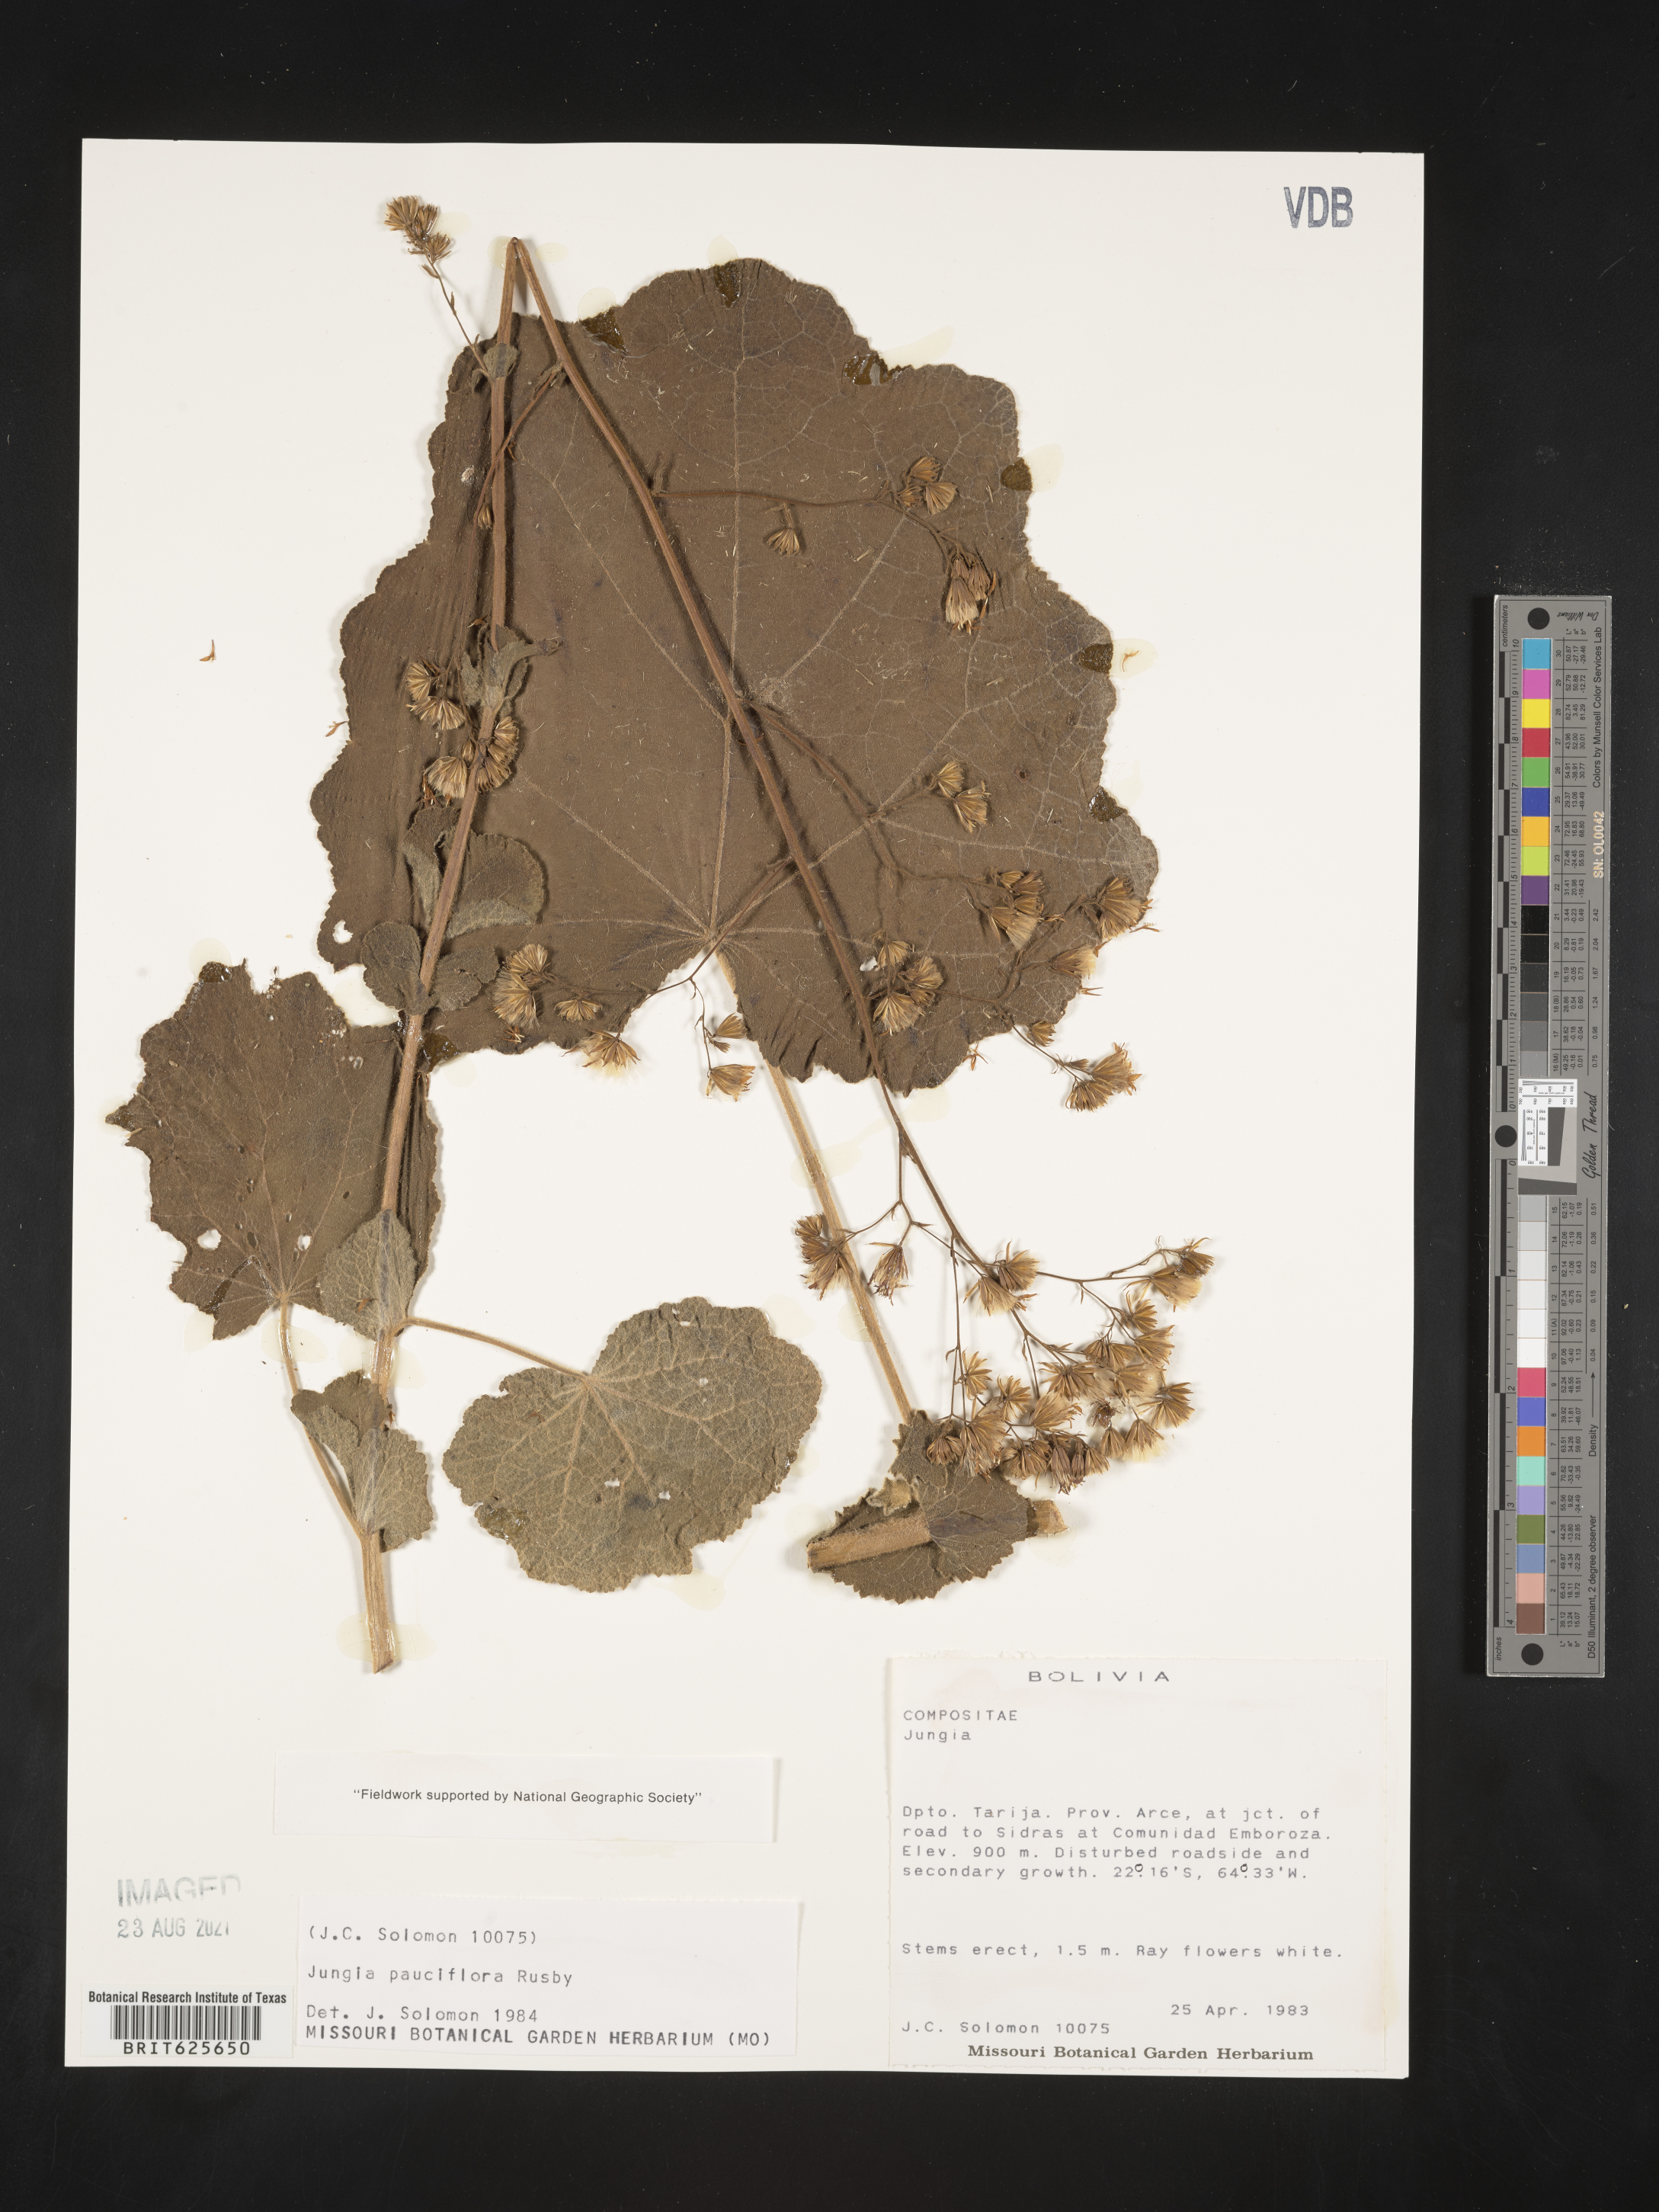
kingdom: Plantae
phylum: Tracheophyta
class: Magnoliopsida
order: Asterales
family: Asteraceae
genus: Jungia
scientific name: Jungia pauciflora
